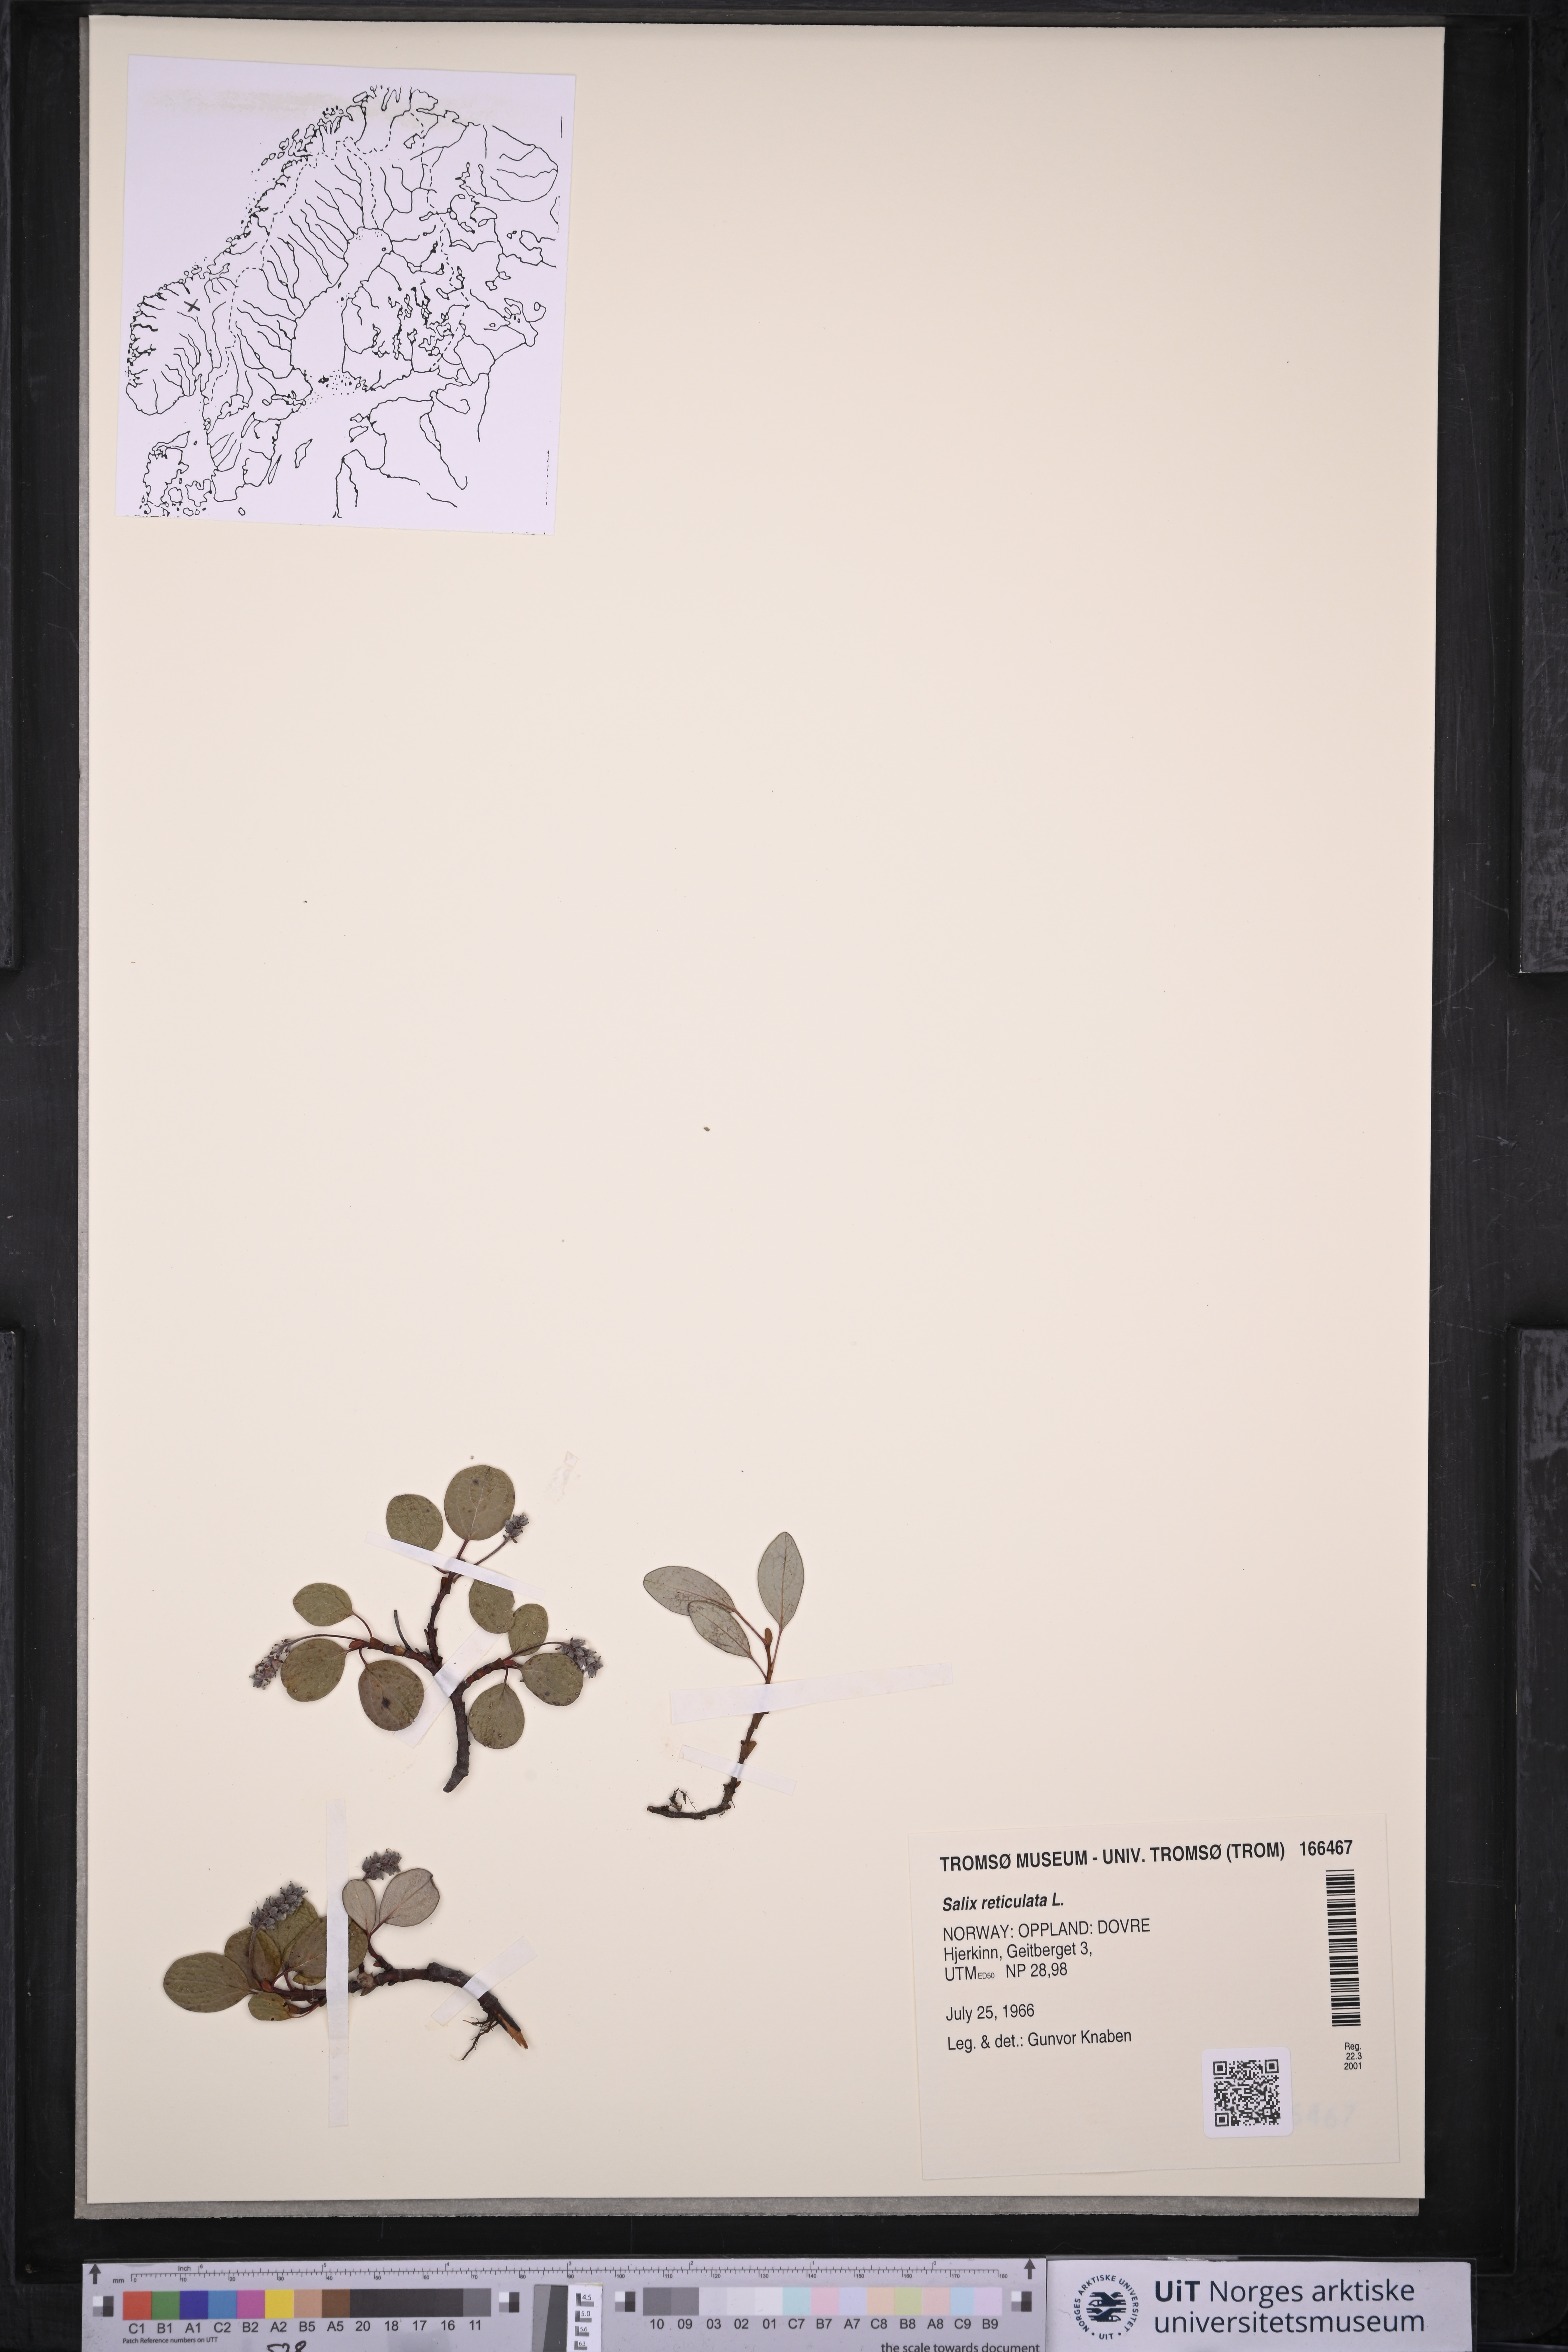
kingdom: Plantae
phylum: Tracheophyta
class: Magnoliopsida
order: Malpighiales
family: Salicaceae
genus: Salix
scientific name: Salix reticulata
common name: Net-leaved willow
